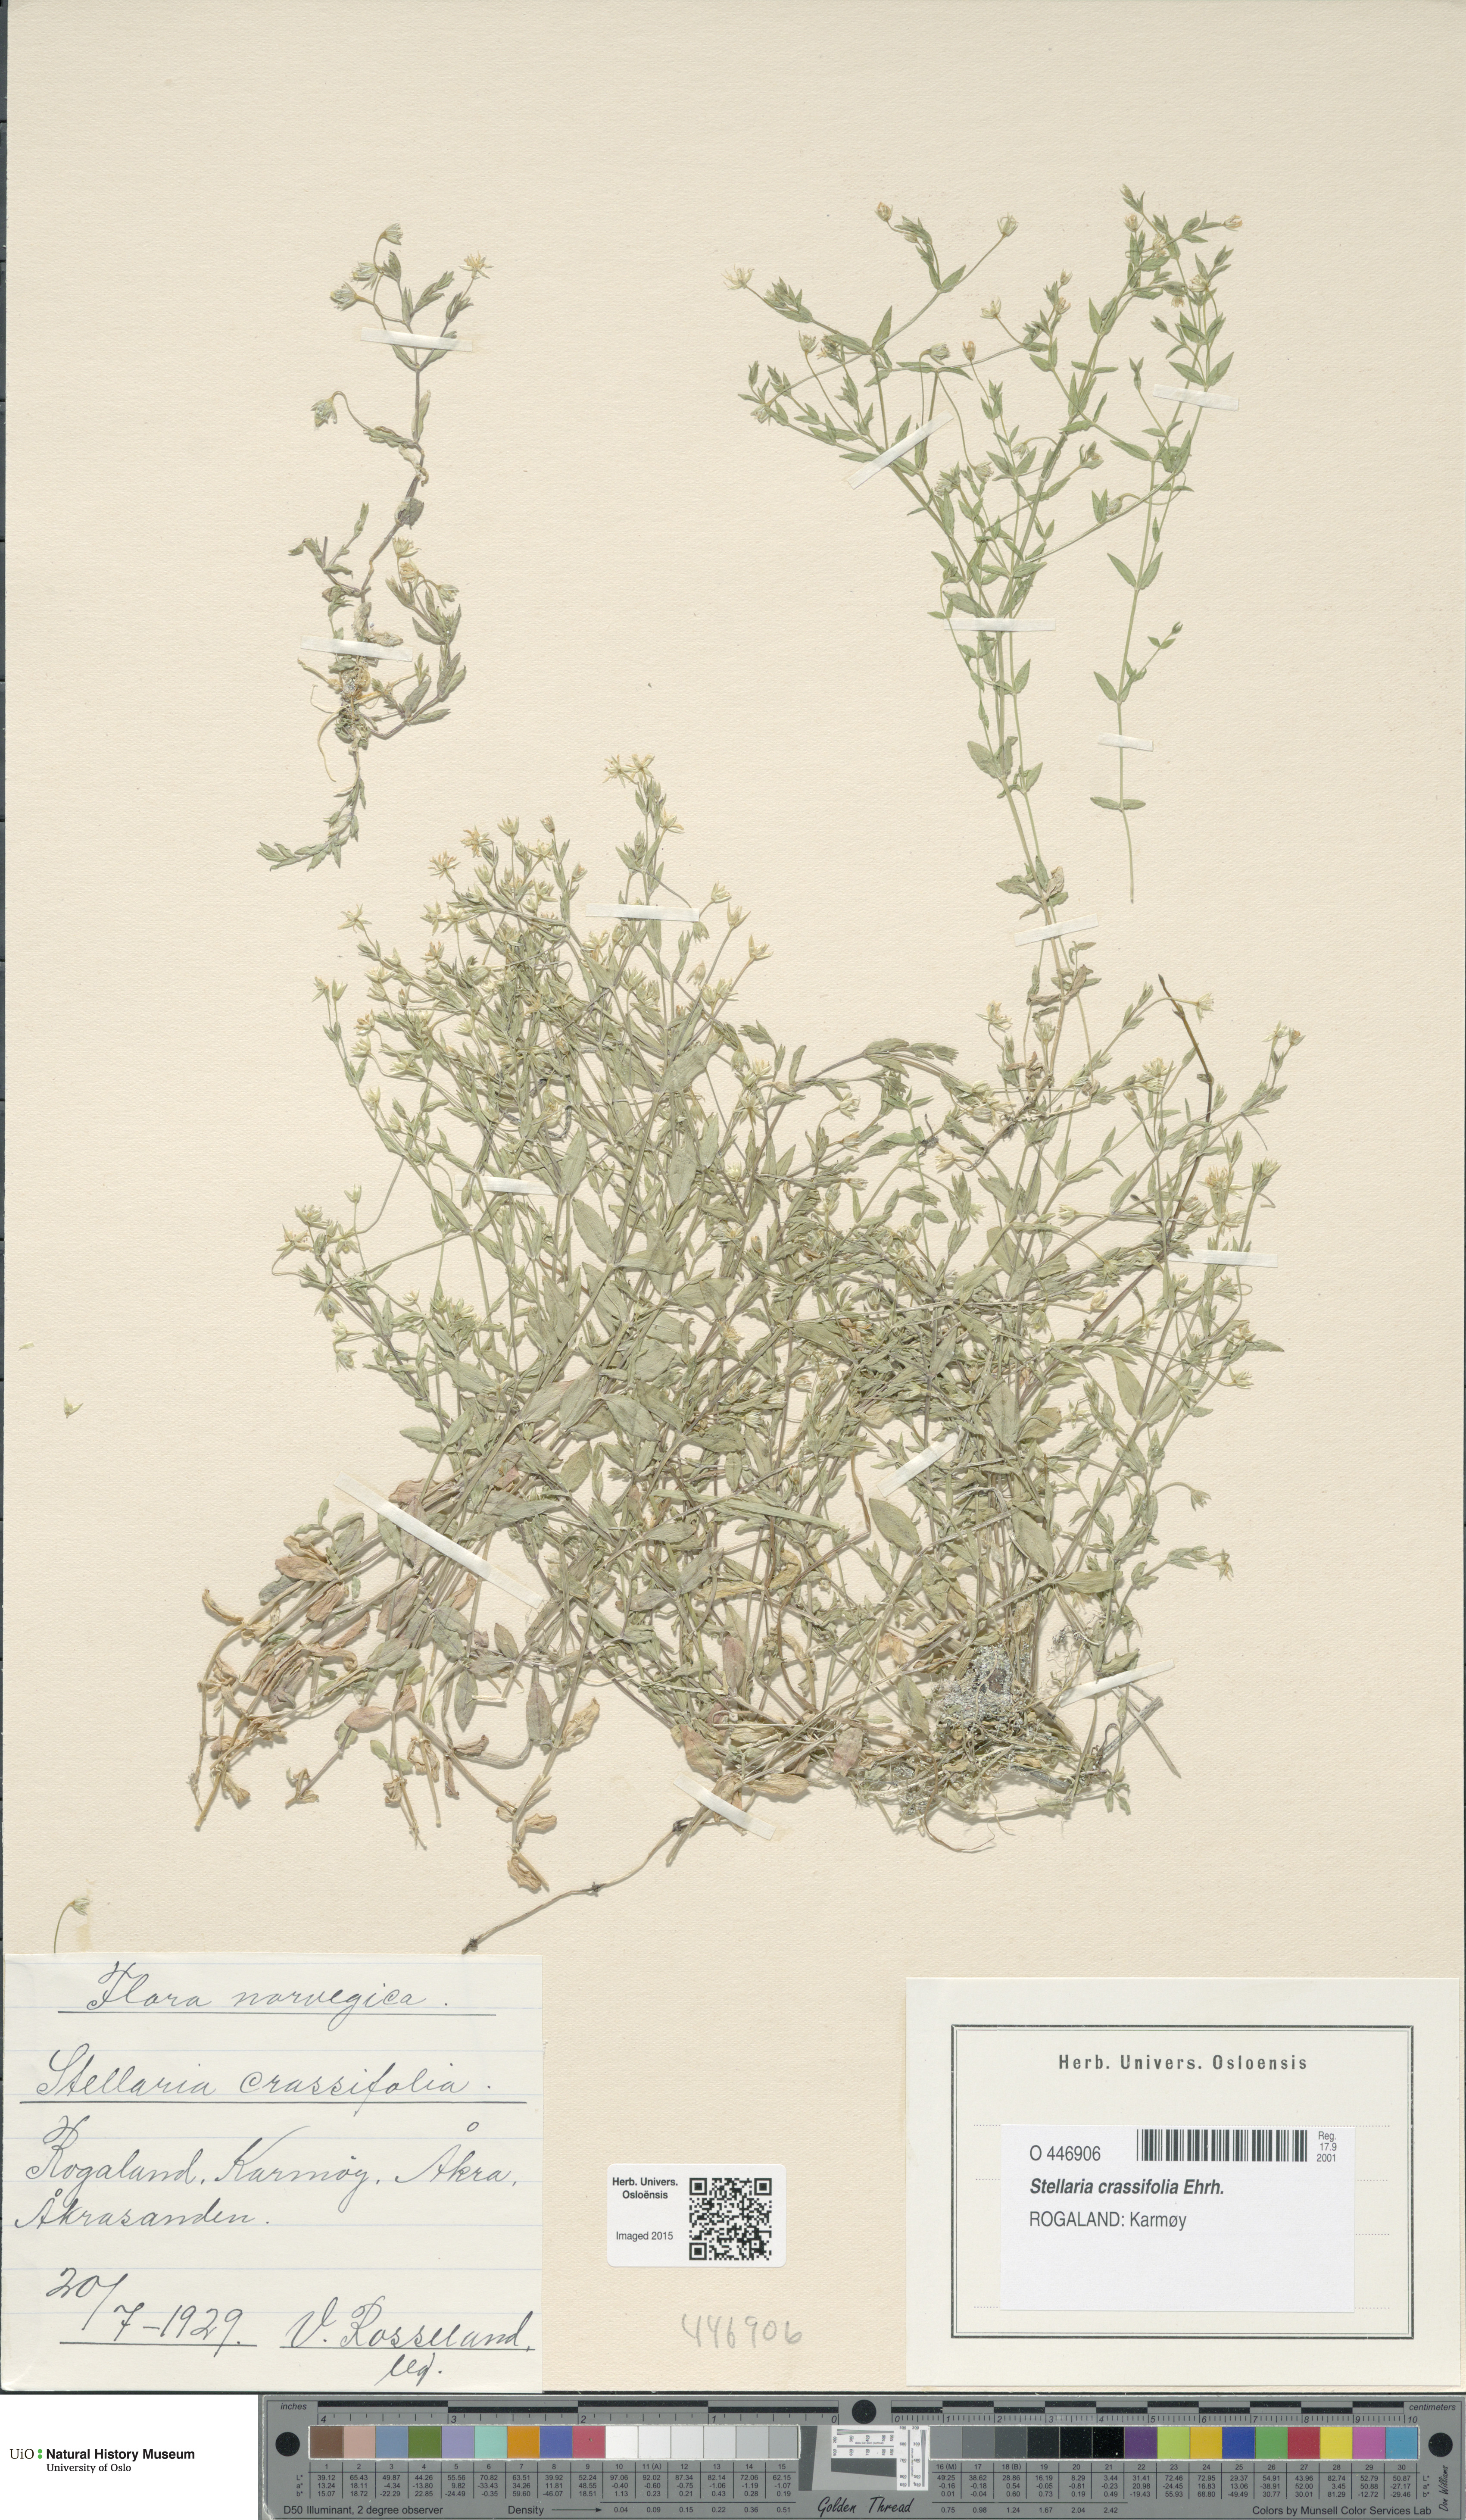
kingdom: Plantae
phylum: Tracheophyta
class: Magnoliopsida
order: Caryophyllales
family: Caryophyllaceae
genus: Stellaria
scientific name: Stellaria crassifolia
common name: Fleshy starwort
